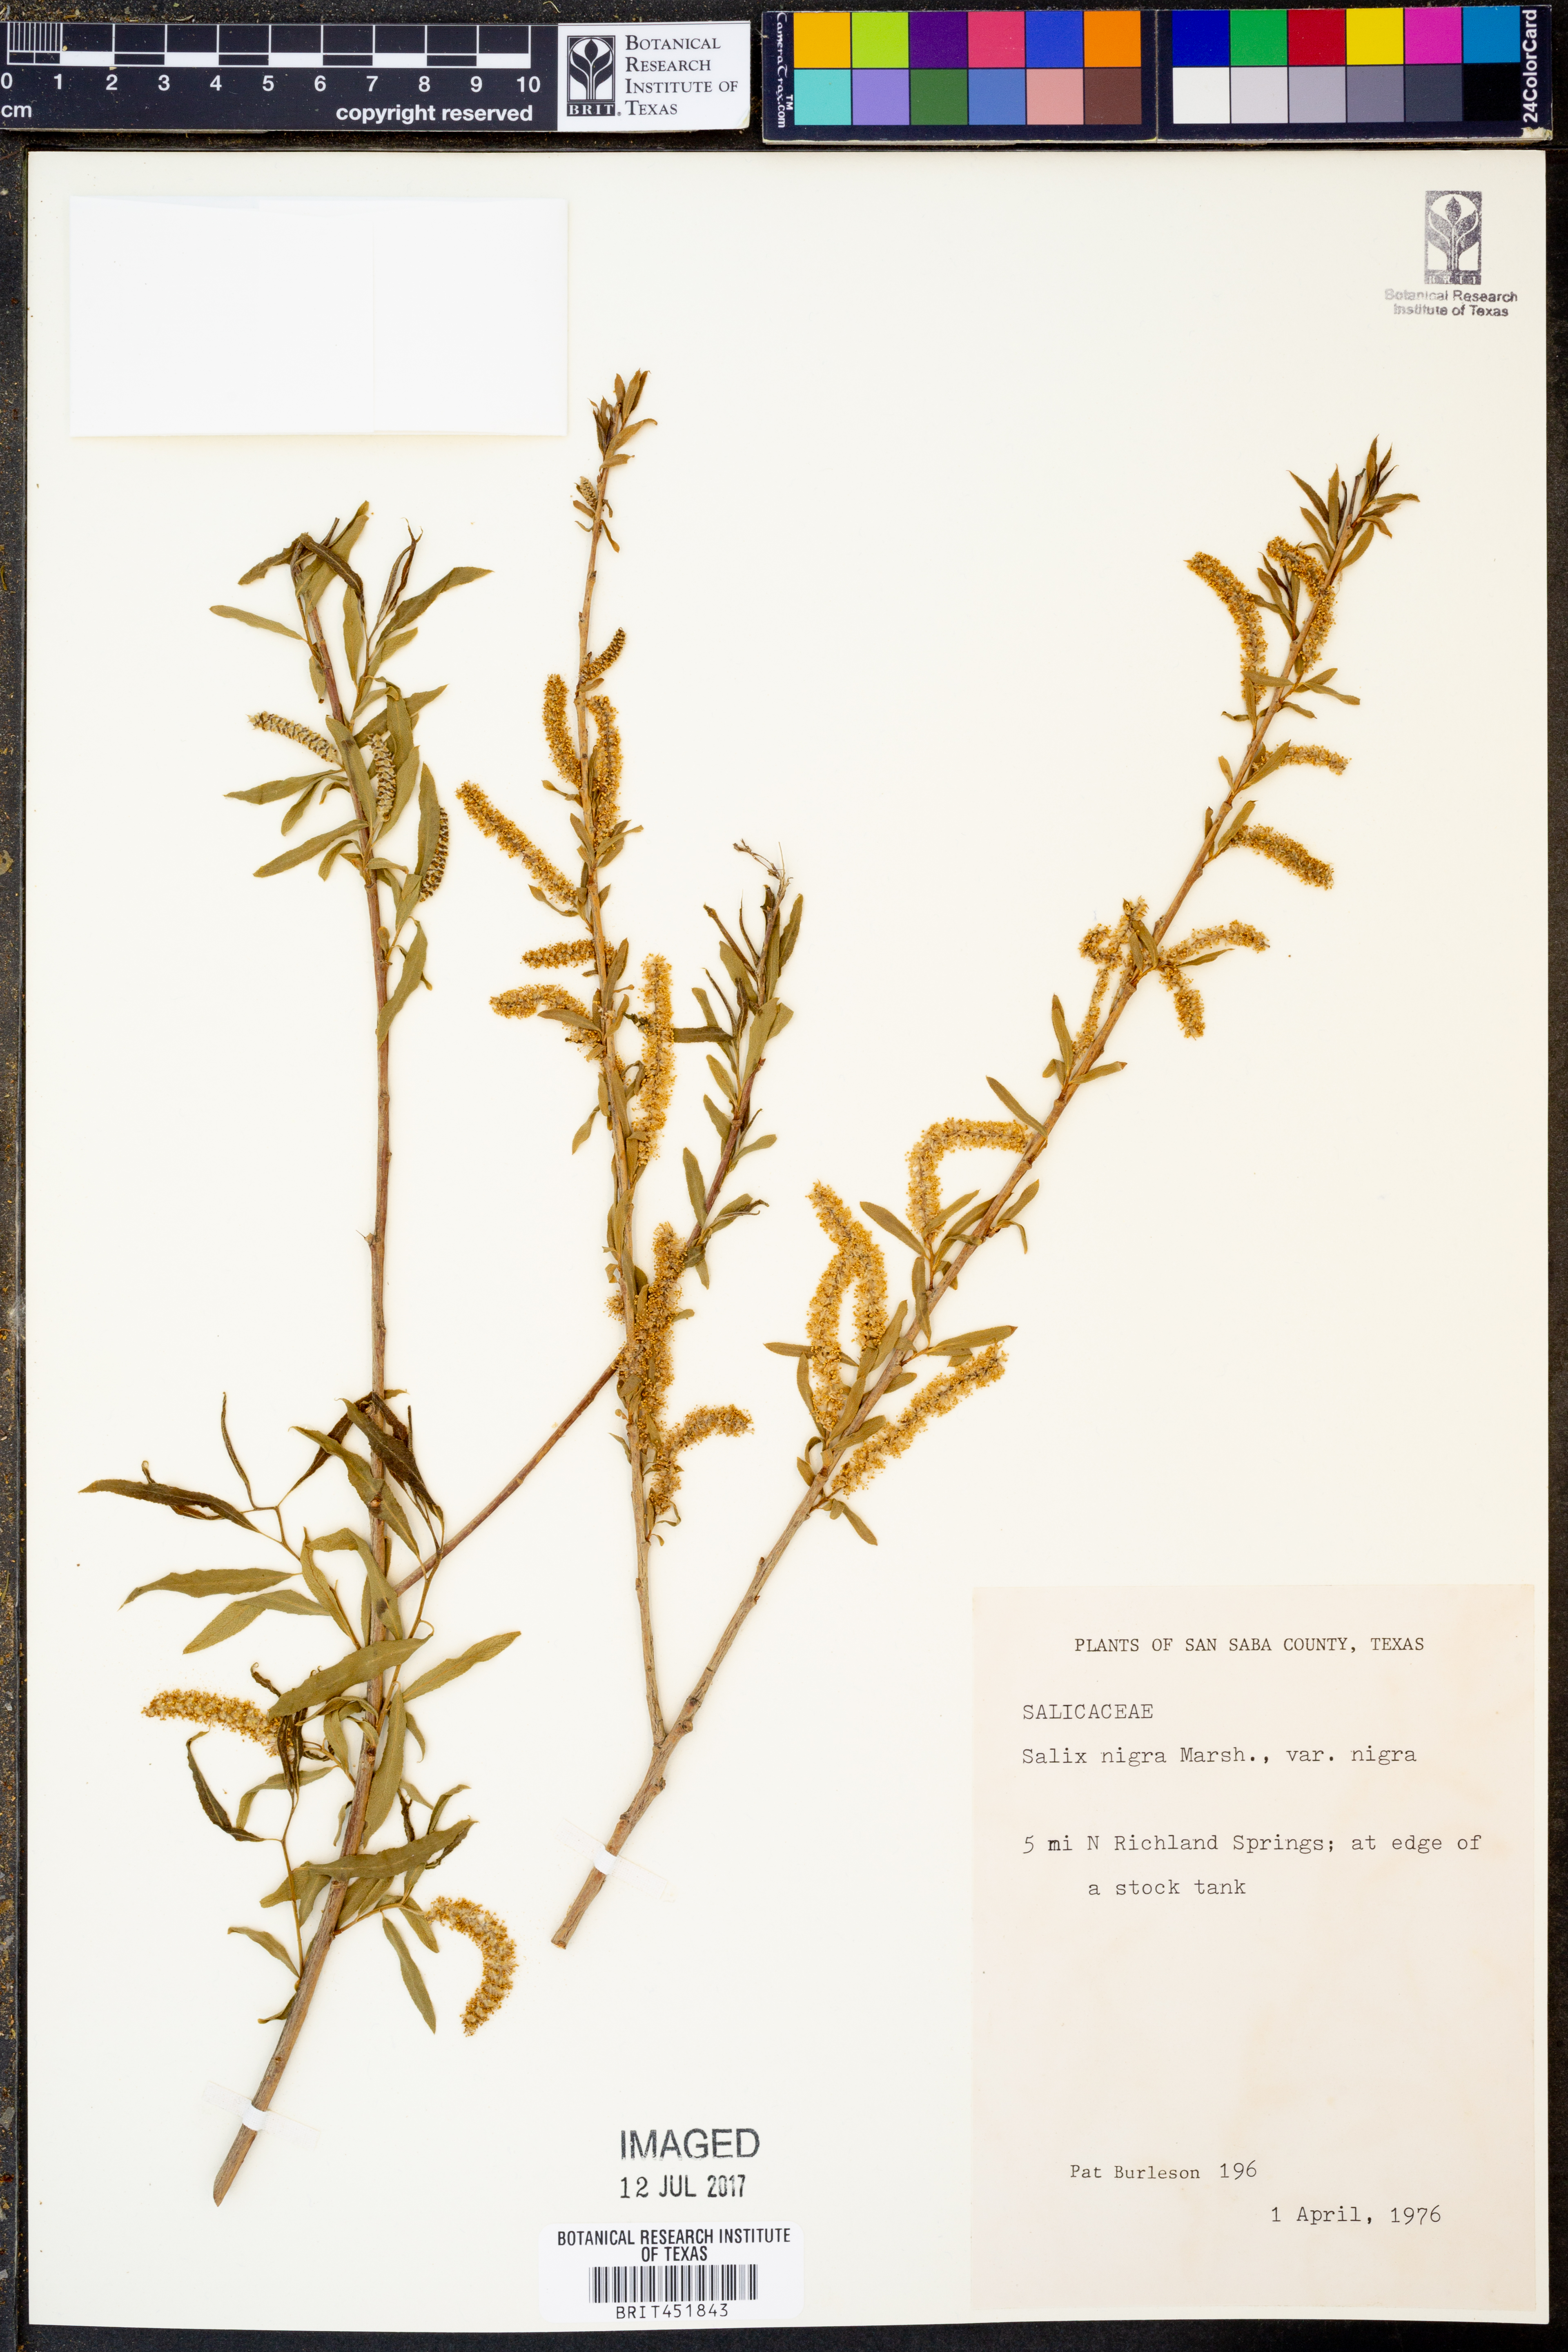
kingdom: Plantae
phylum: Tracheophyta
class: Magnoliopsida
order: Malpighiales
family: Salicaceae
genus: Salix
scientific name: Salix nigra
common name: Black willow
